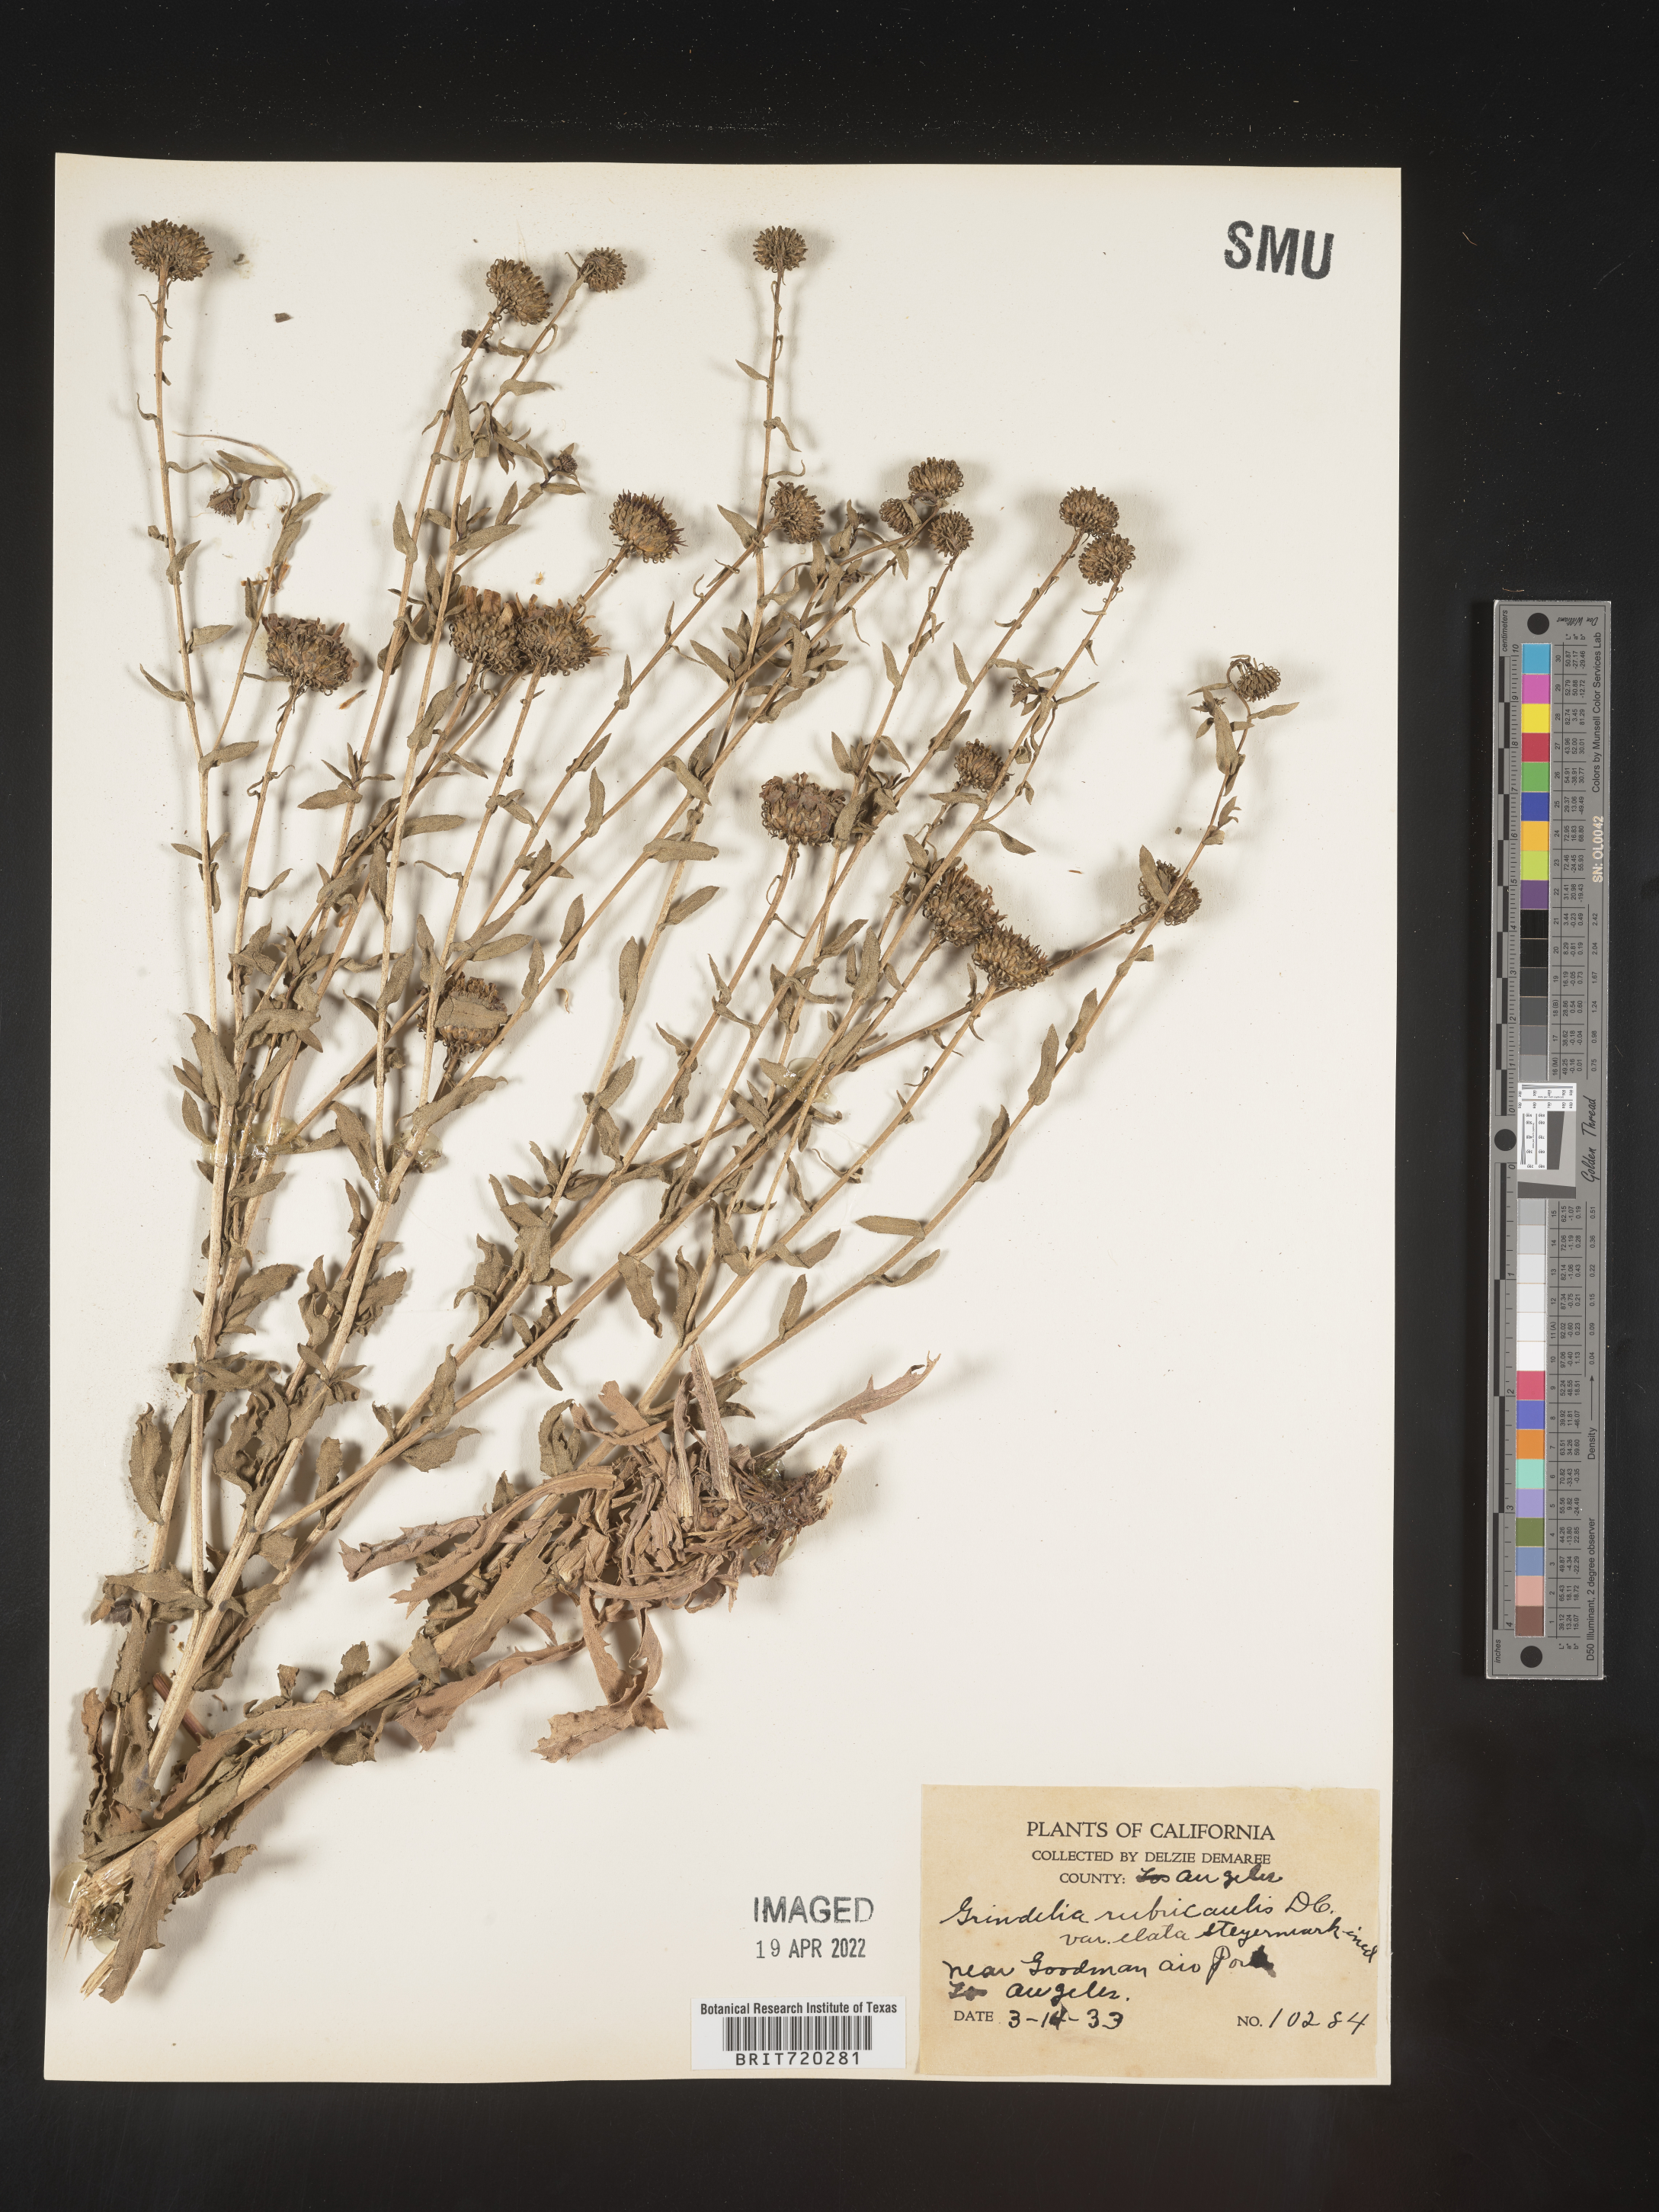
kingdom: Plantae
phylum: Tracheophyta
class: Magnoliopsida
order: Asterales
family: Asteraceae
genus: Grindelia
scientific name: Grindelia
